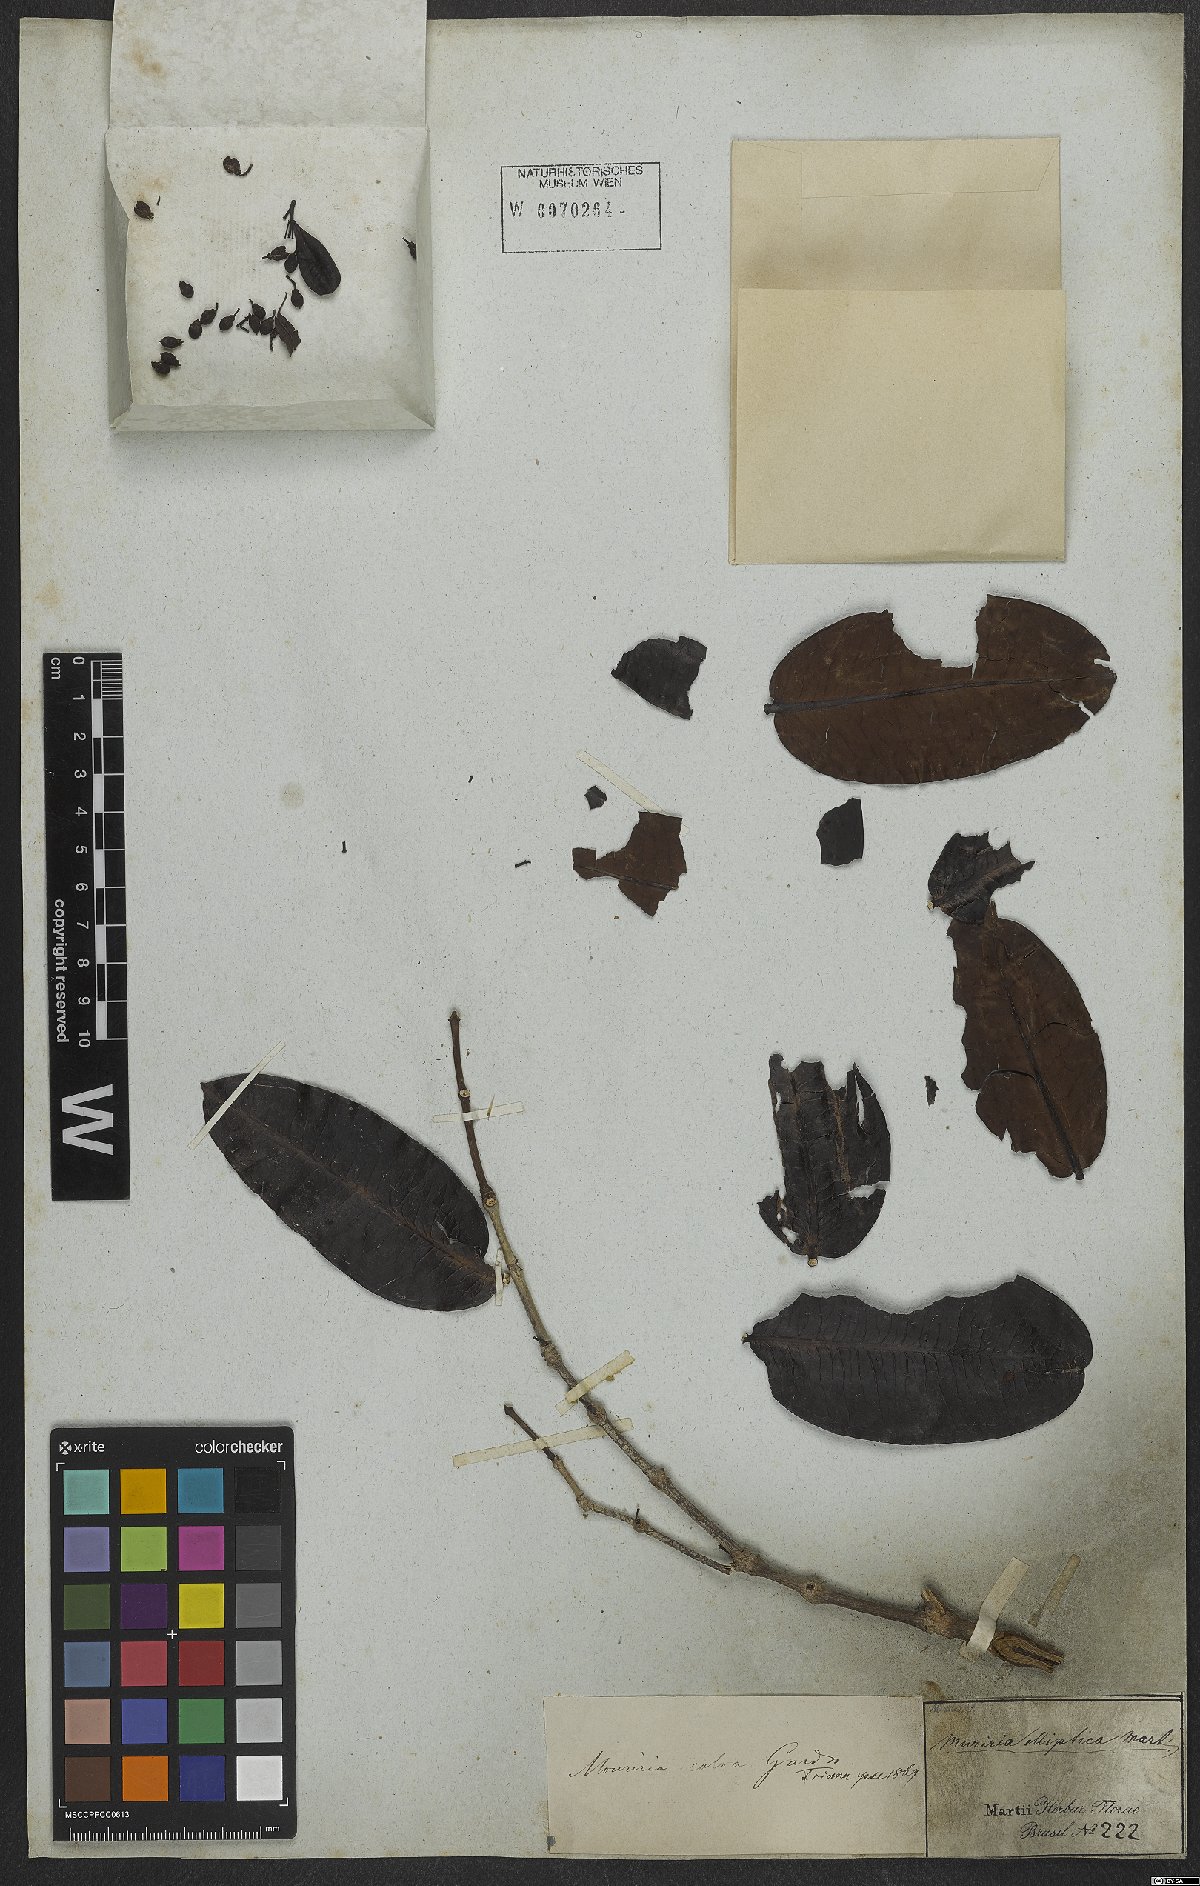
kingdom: Plantae
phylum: Tracheophyta
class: Magnoliopsida
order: Myrtales
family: Melastomataceae
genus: Mouriri
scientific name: Mouriri elliptica
